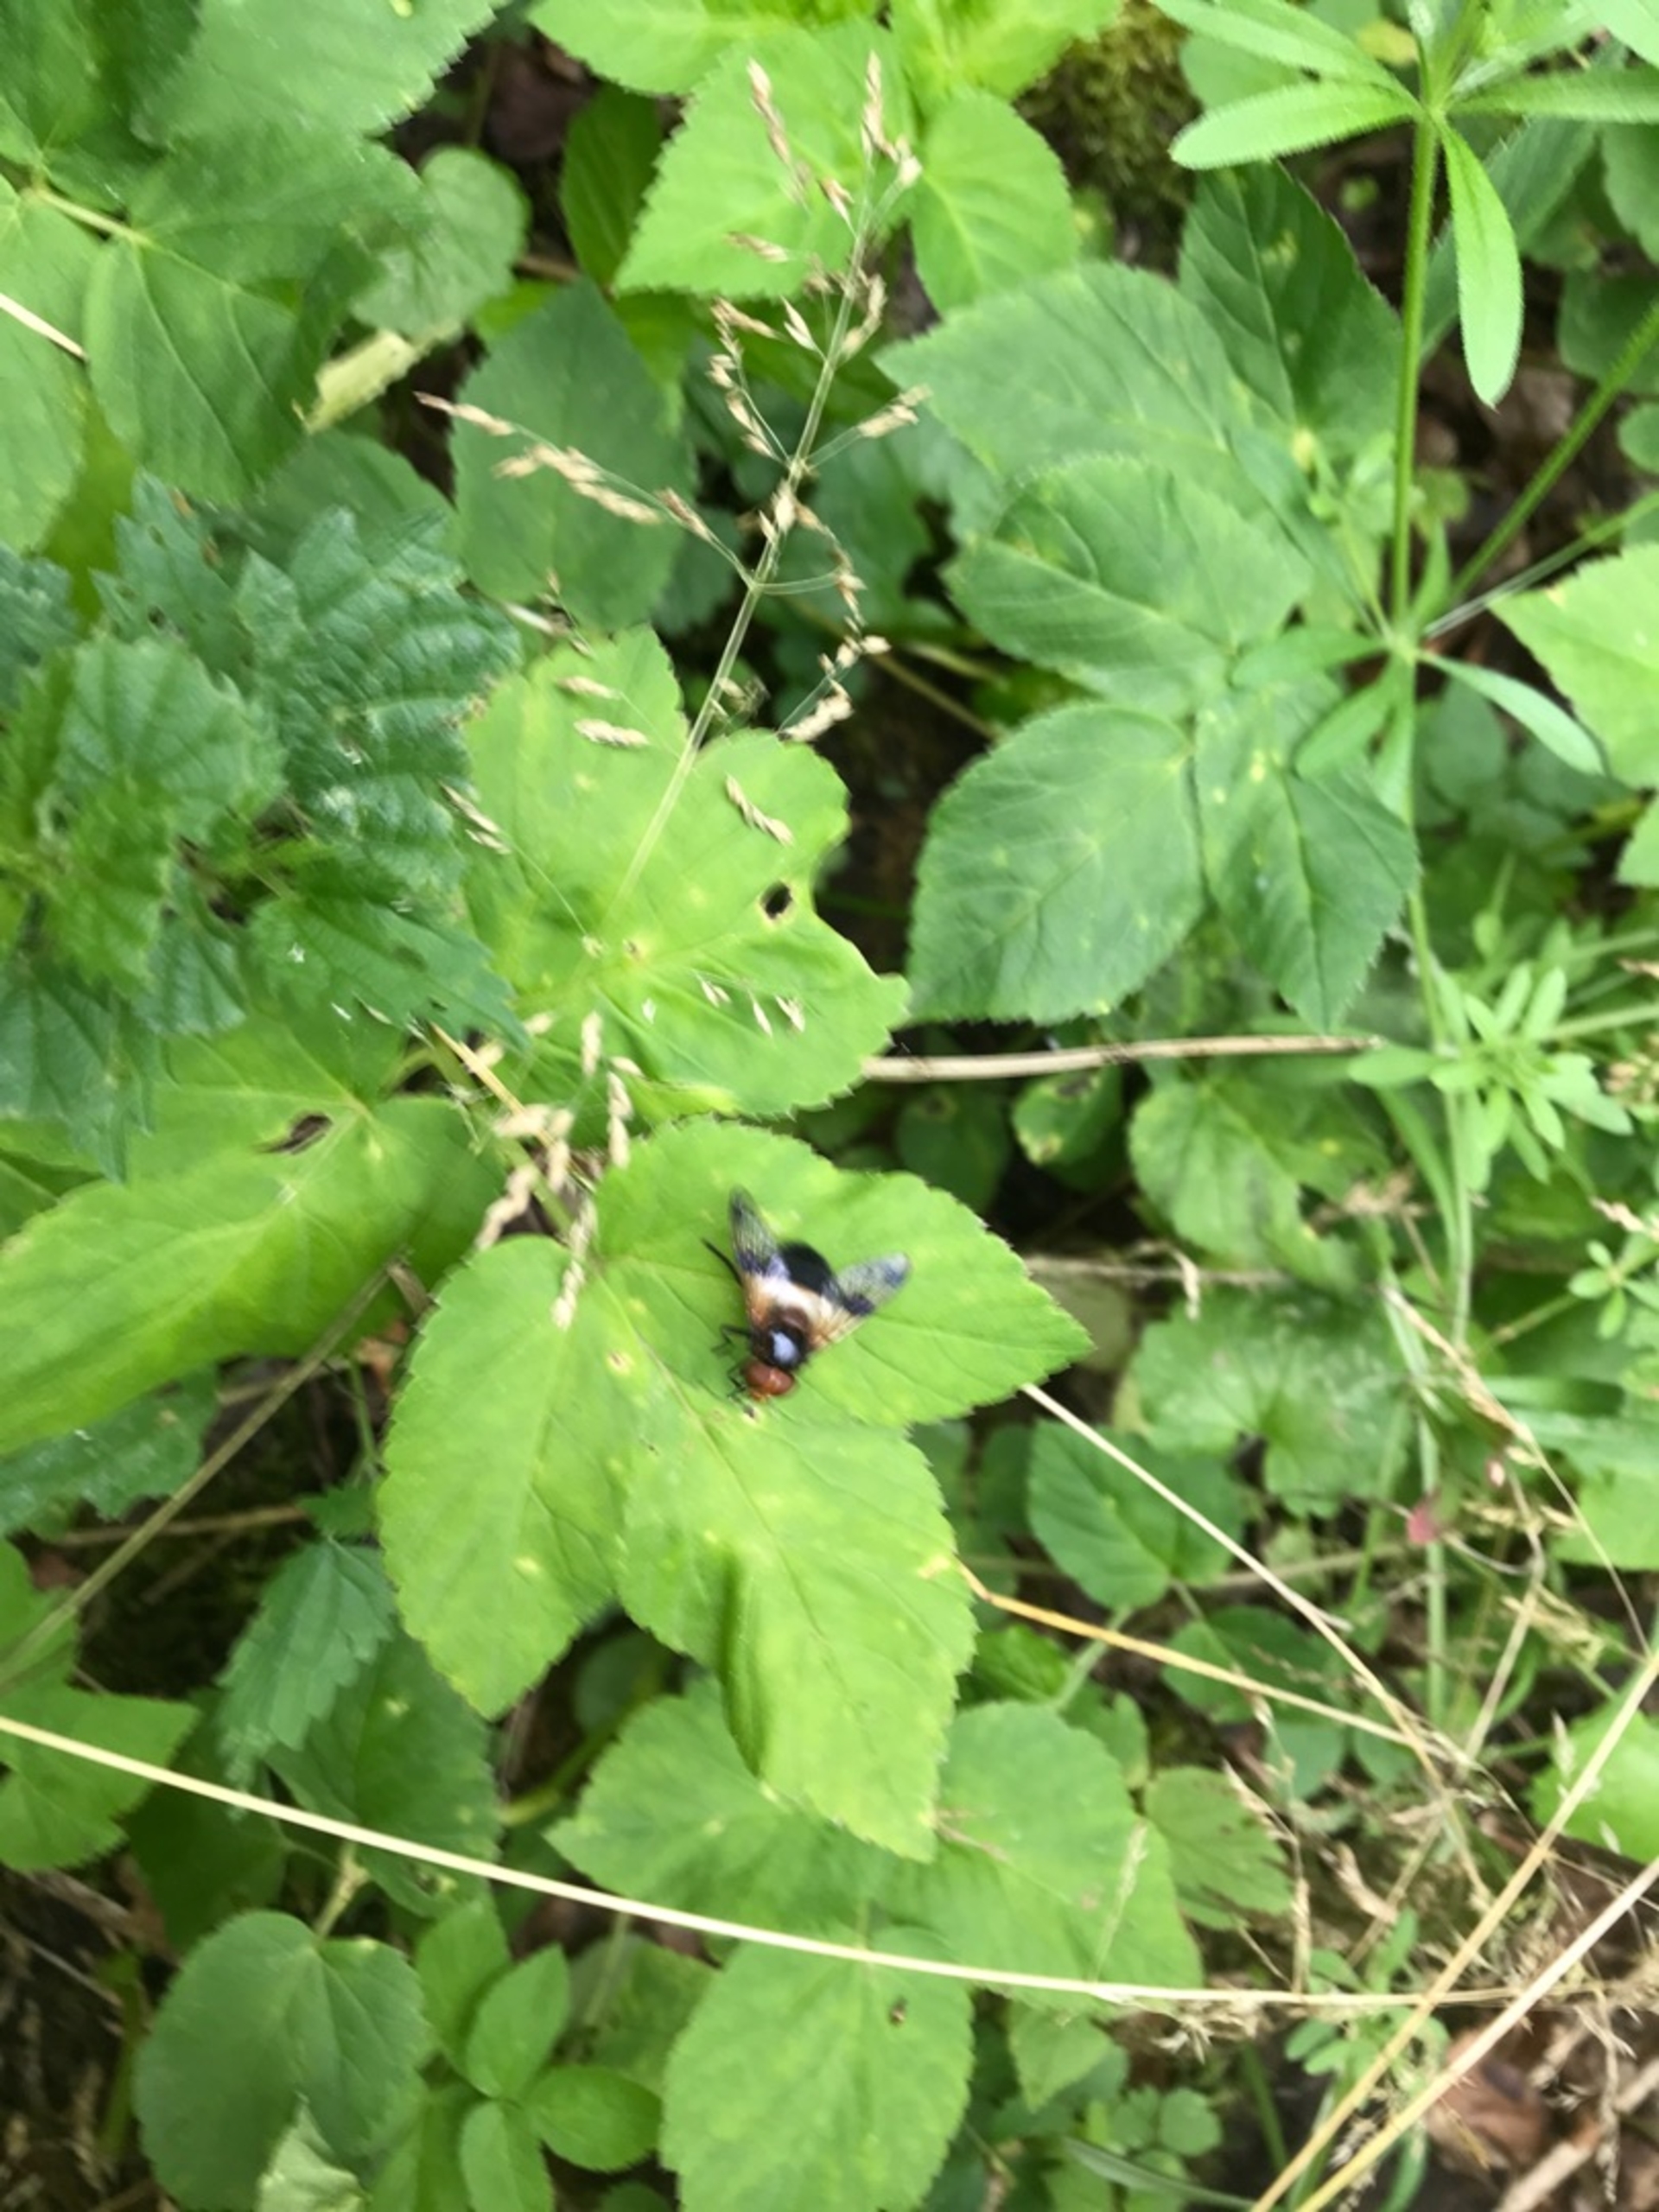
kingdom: Animalia
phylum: Arthropoda
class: Insecta
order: Diptera
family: Syrphidae
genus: Volucella
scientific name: Volucella pellucens
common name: Hvidbåndet humlesvirreflue
